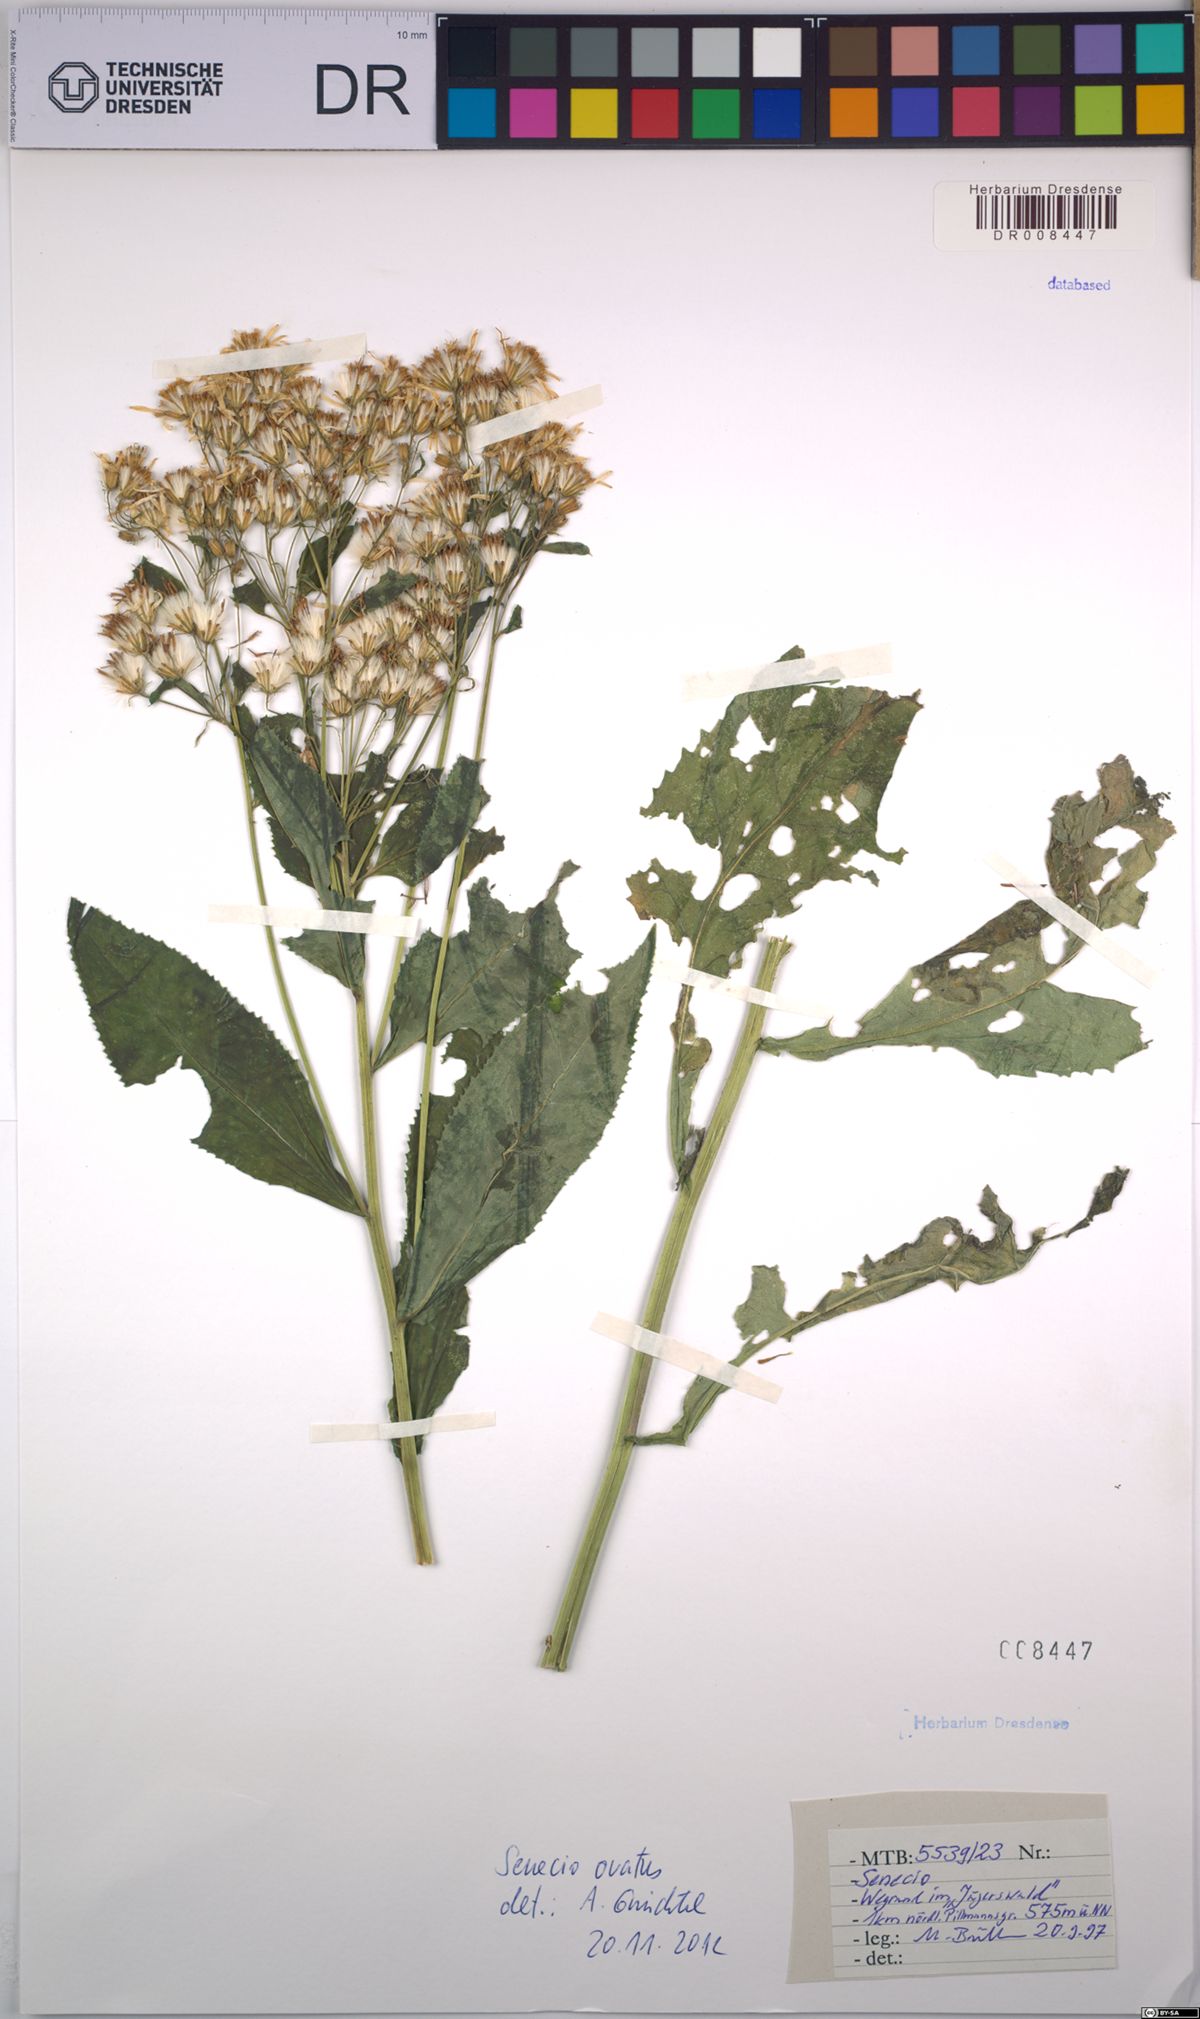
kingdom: Plantae
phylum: Tracheophyta
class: Magnoliopsida
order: Asterales
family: Asteraceae
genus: Senecio
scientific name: Senecio ovatus
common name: Wood ragwort
